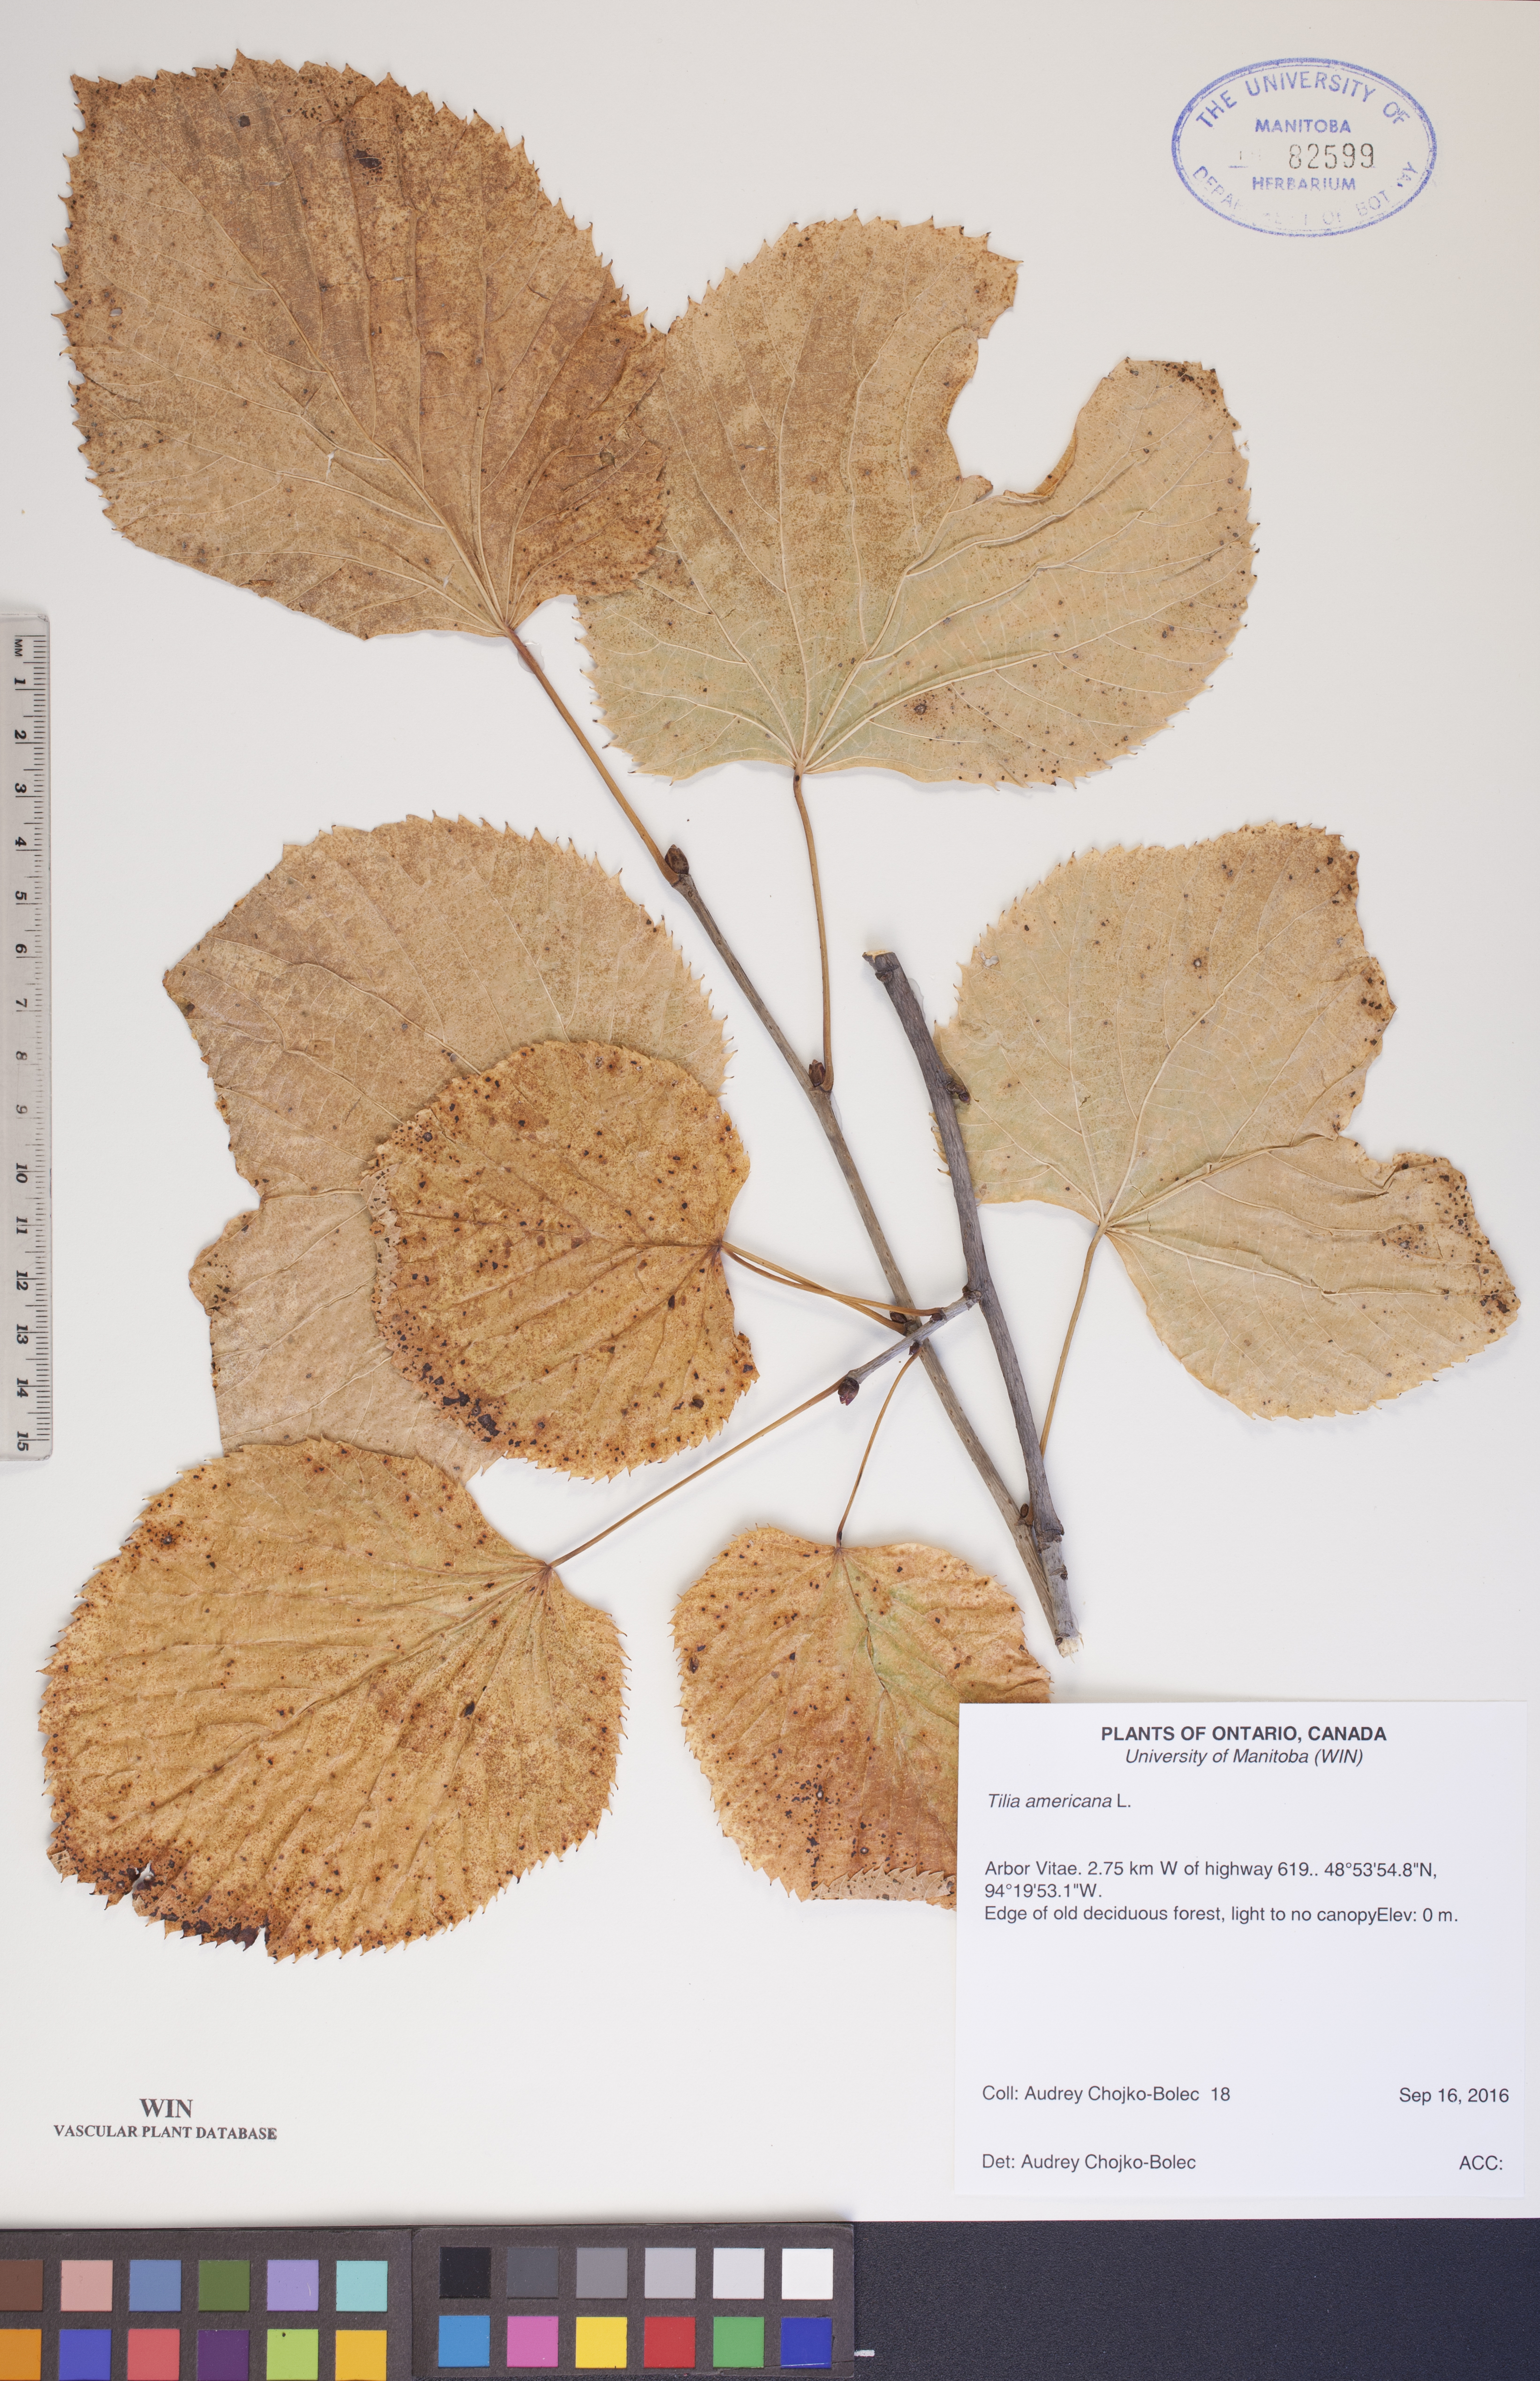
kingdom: Plantae
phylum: Tracheophyta
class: Magnoliopsida
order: Malvales
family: Malvaceae
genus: Tilia
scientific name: Tilia americana
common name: Basswood
